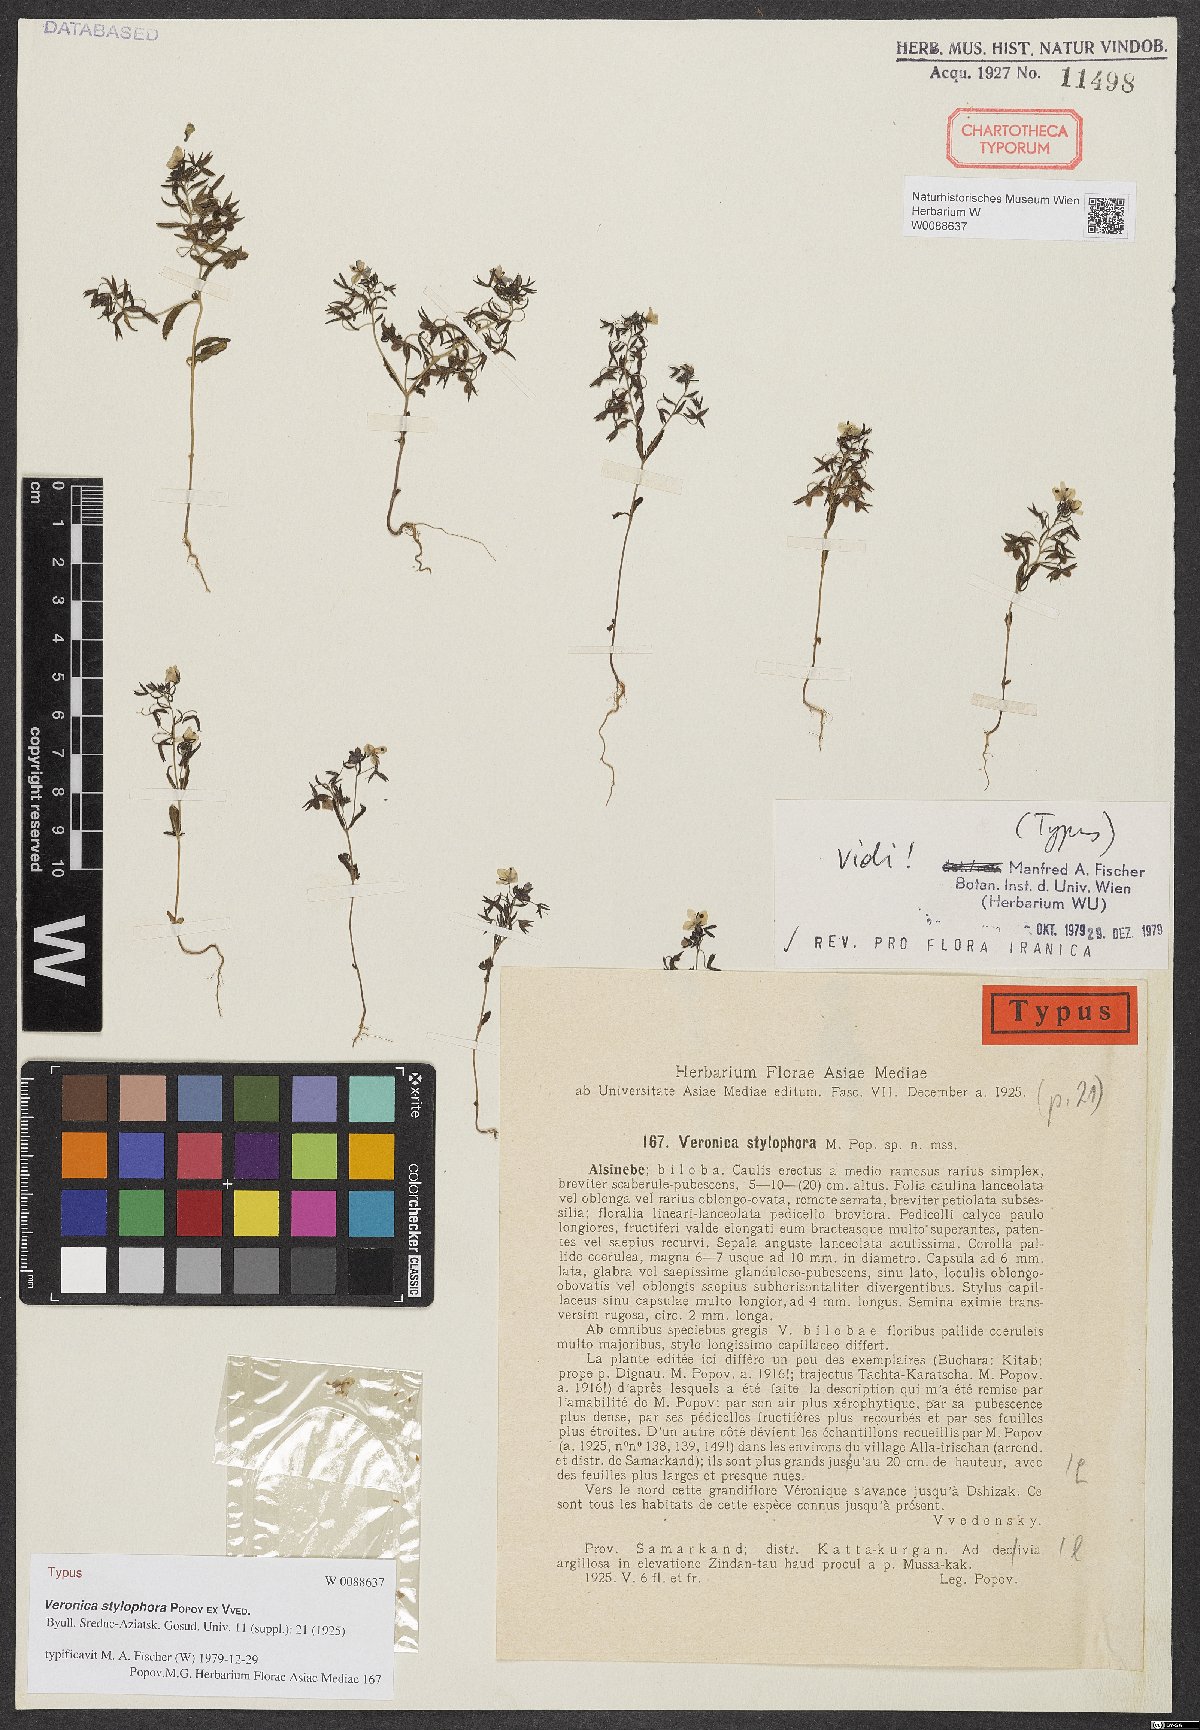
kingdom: Plantae
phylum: Tracheophyta
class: Magnoliopsida
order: Lamiales
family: Plantaginaceae
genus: Veronica
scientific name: Veronica stylophora
